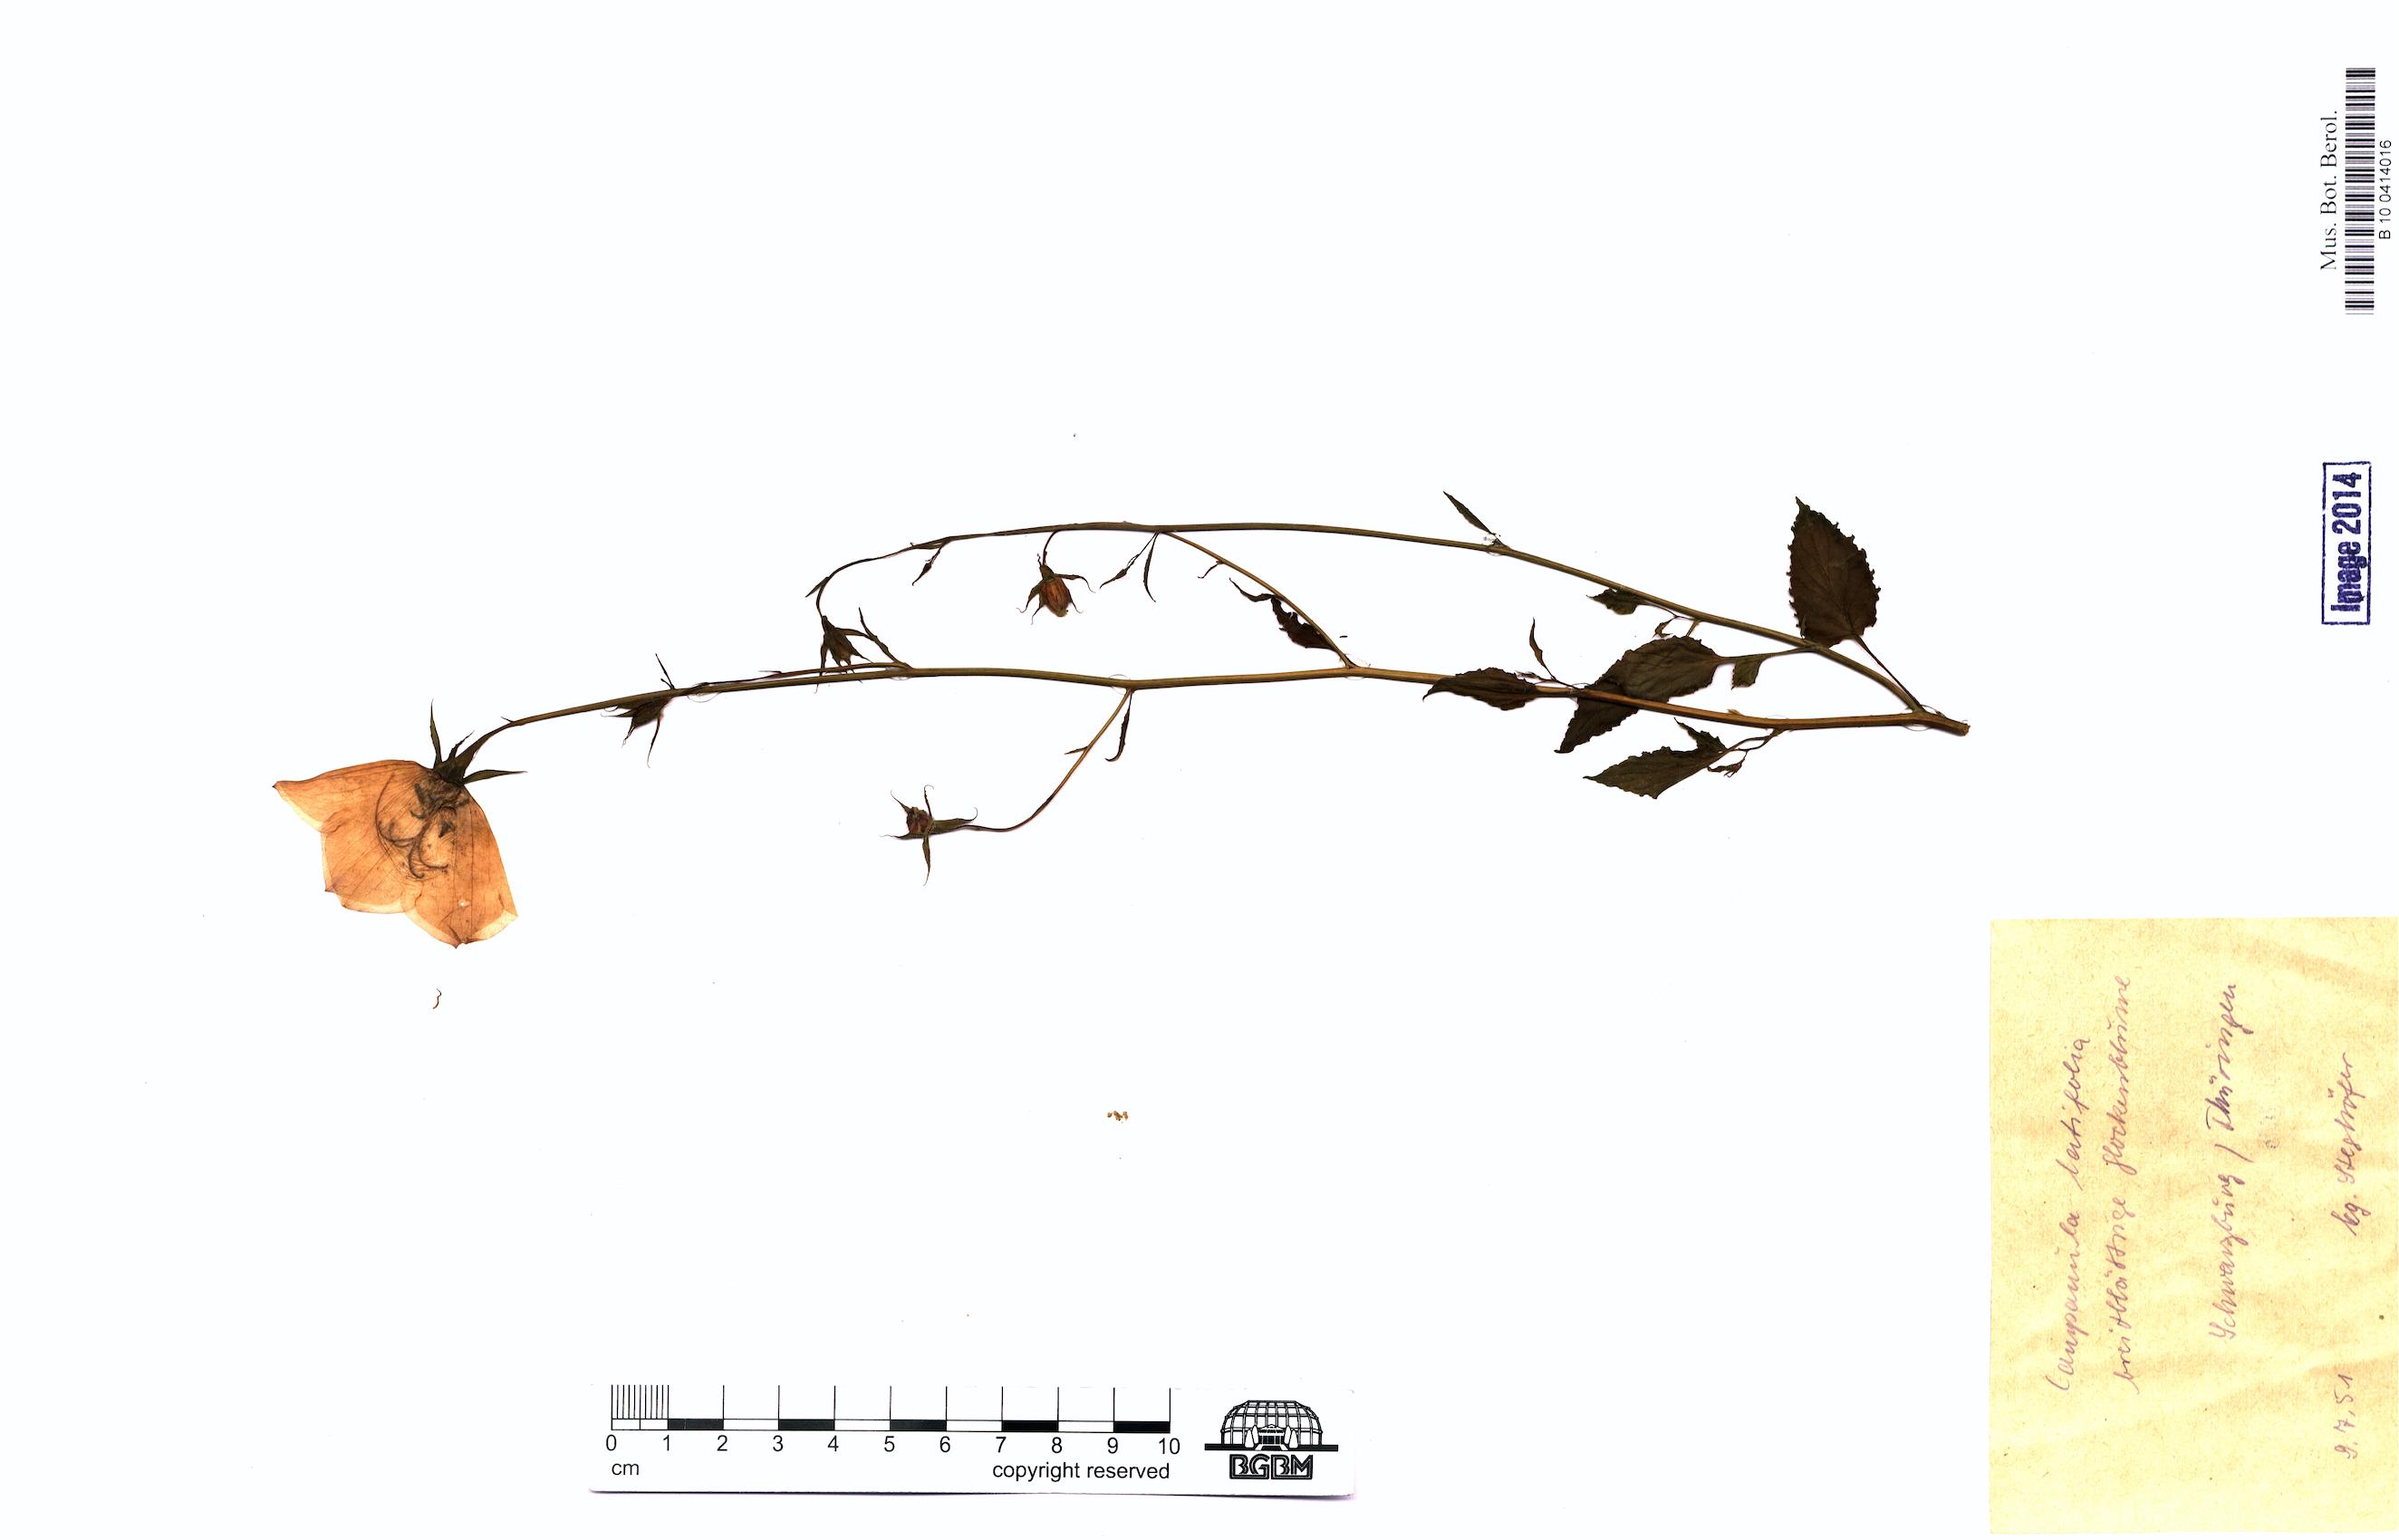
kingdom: Plantae
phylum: Tracheophyta
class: Magnoliopsida
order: Asterales
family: Campanulaceae
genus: Campanula
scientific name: Campanula latifolia
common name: Giant bellflower
